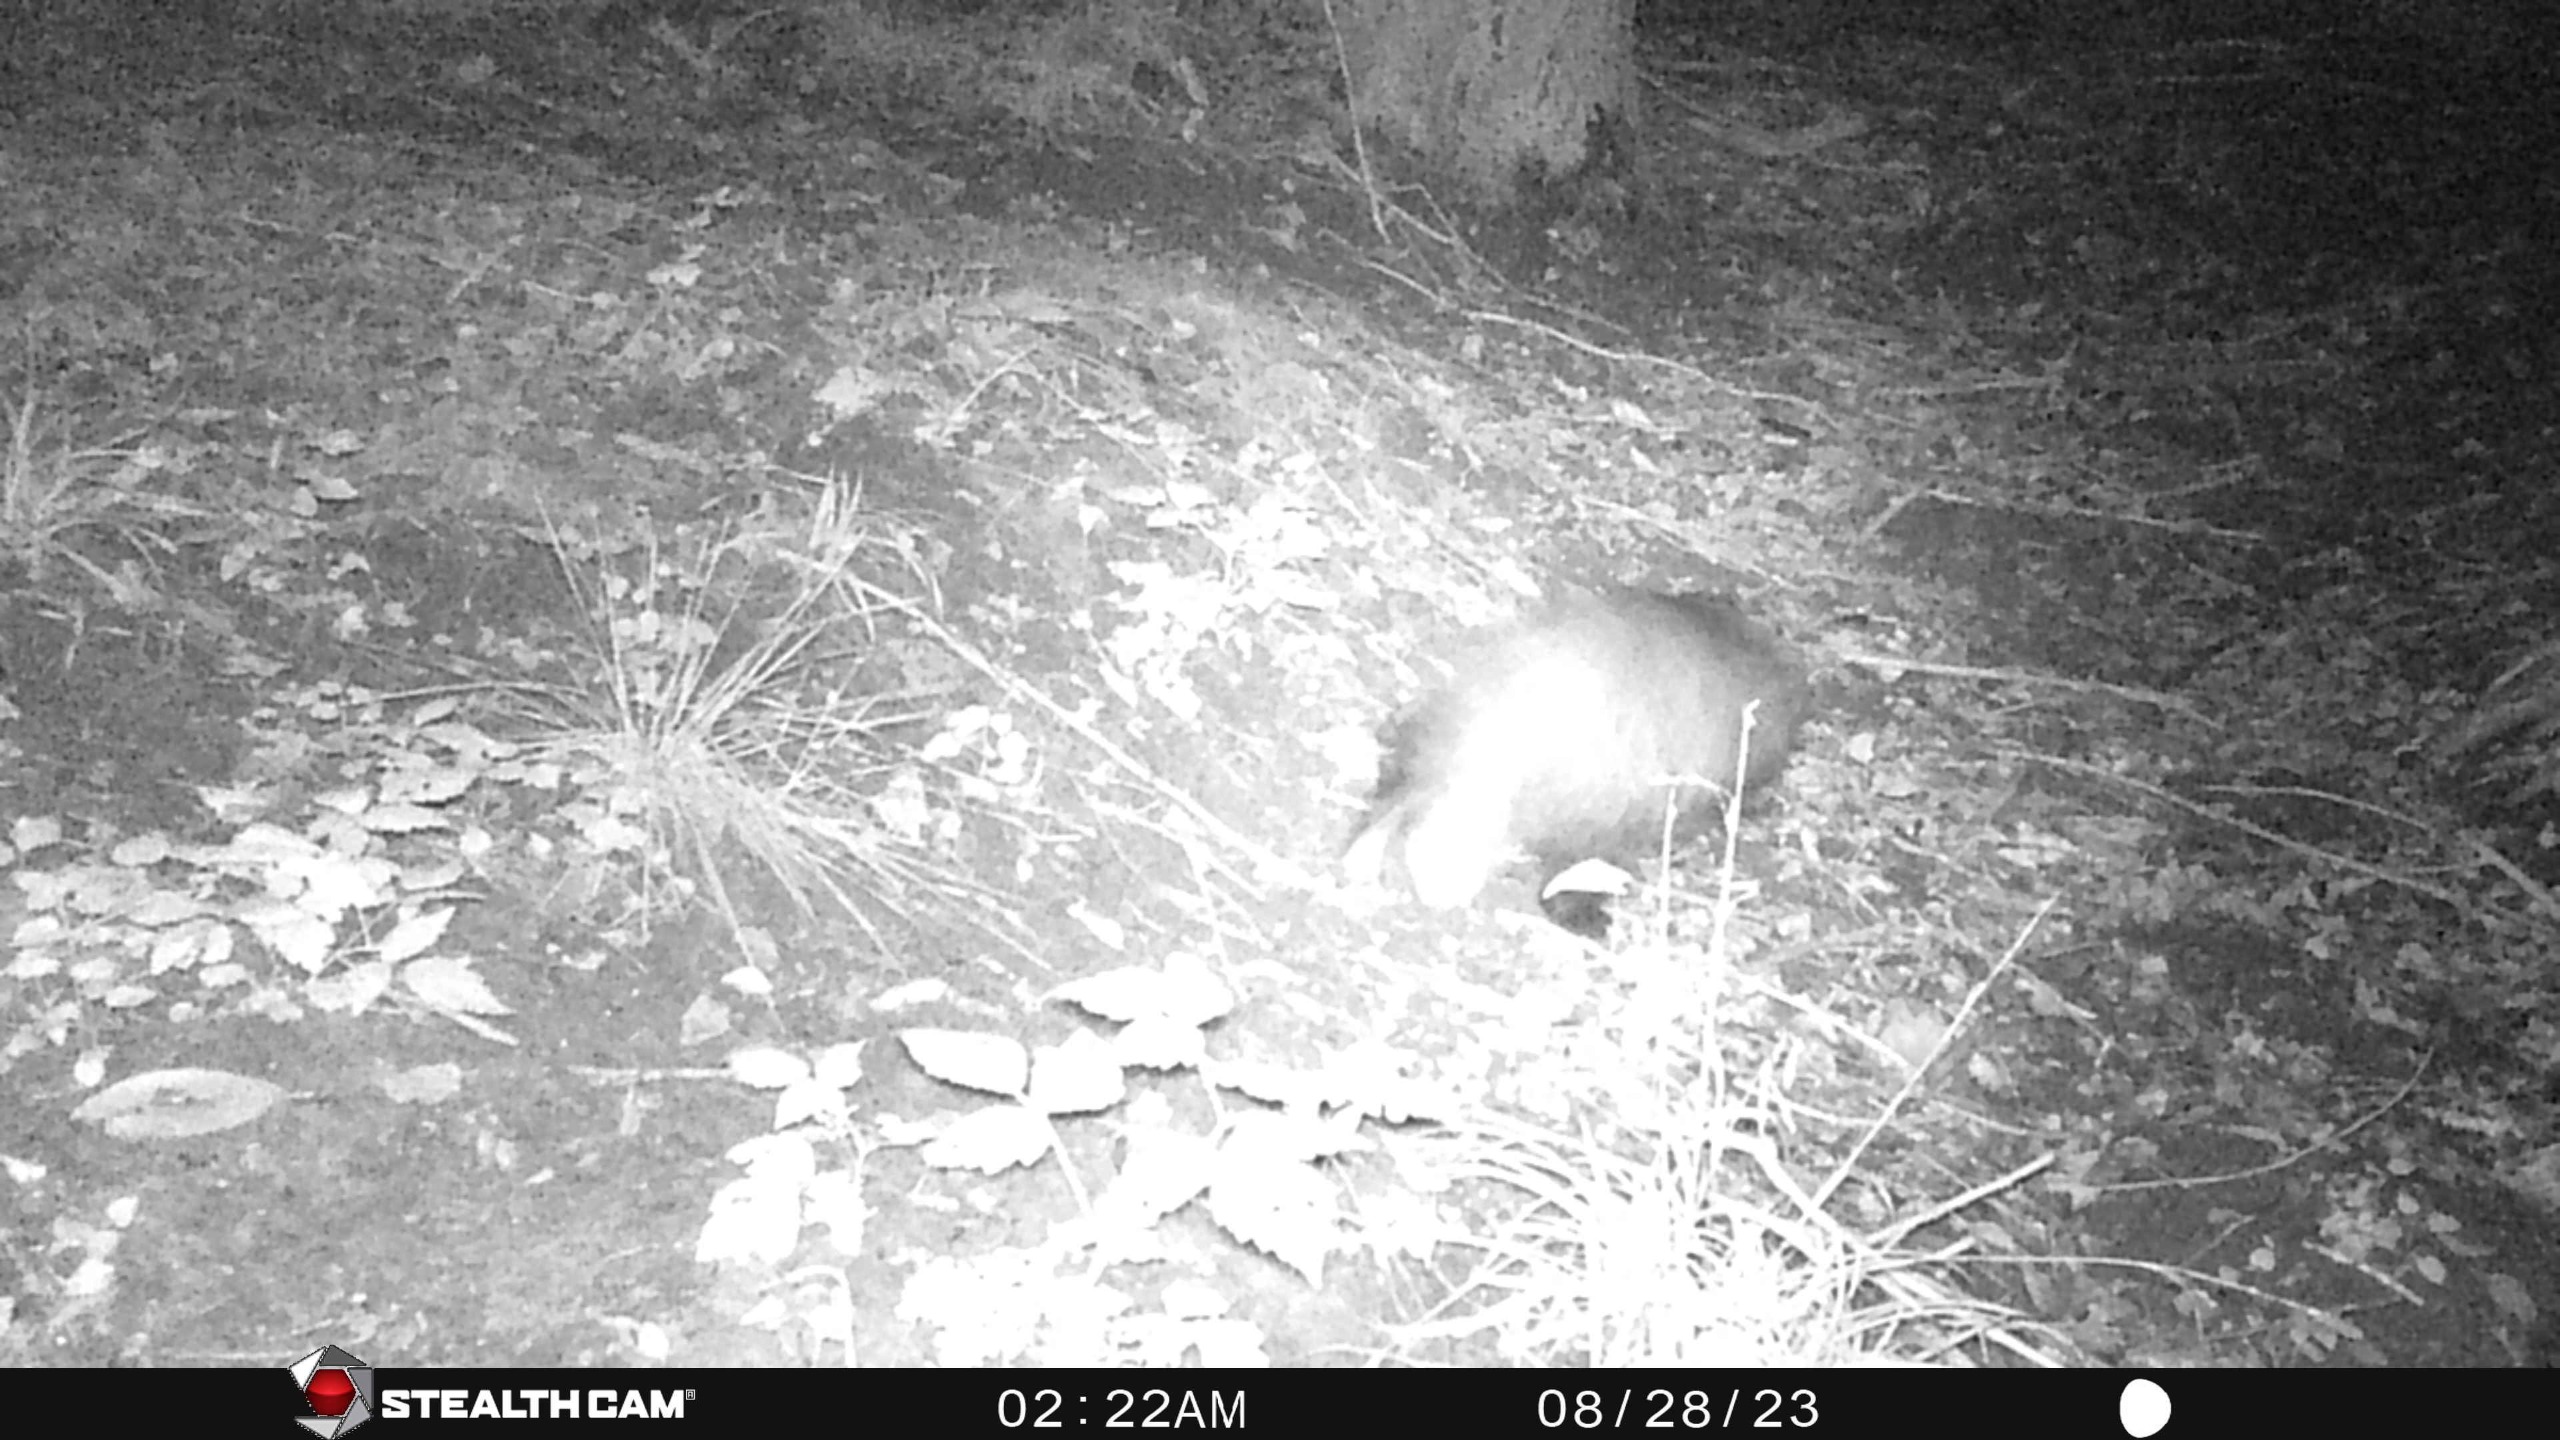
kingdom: Animalia
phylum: Chordata
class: Mammalia
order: Carnivora
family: Mustelidae
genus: Meles
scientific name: Meles meles
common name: Grævling
